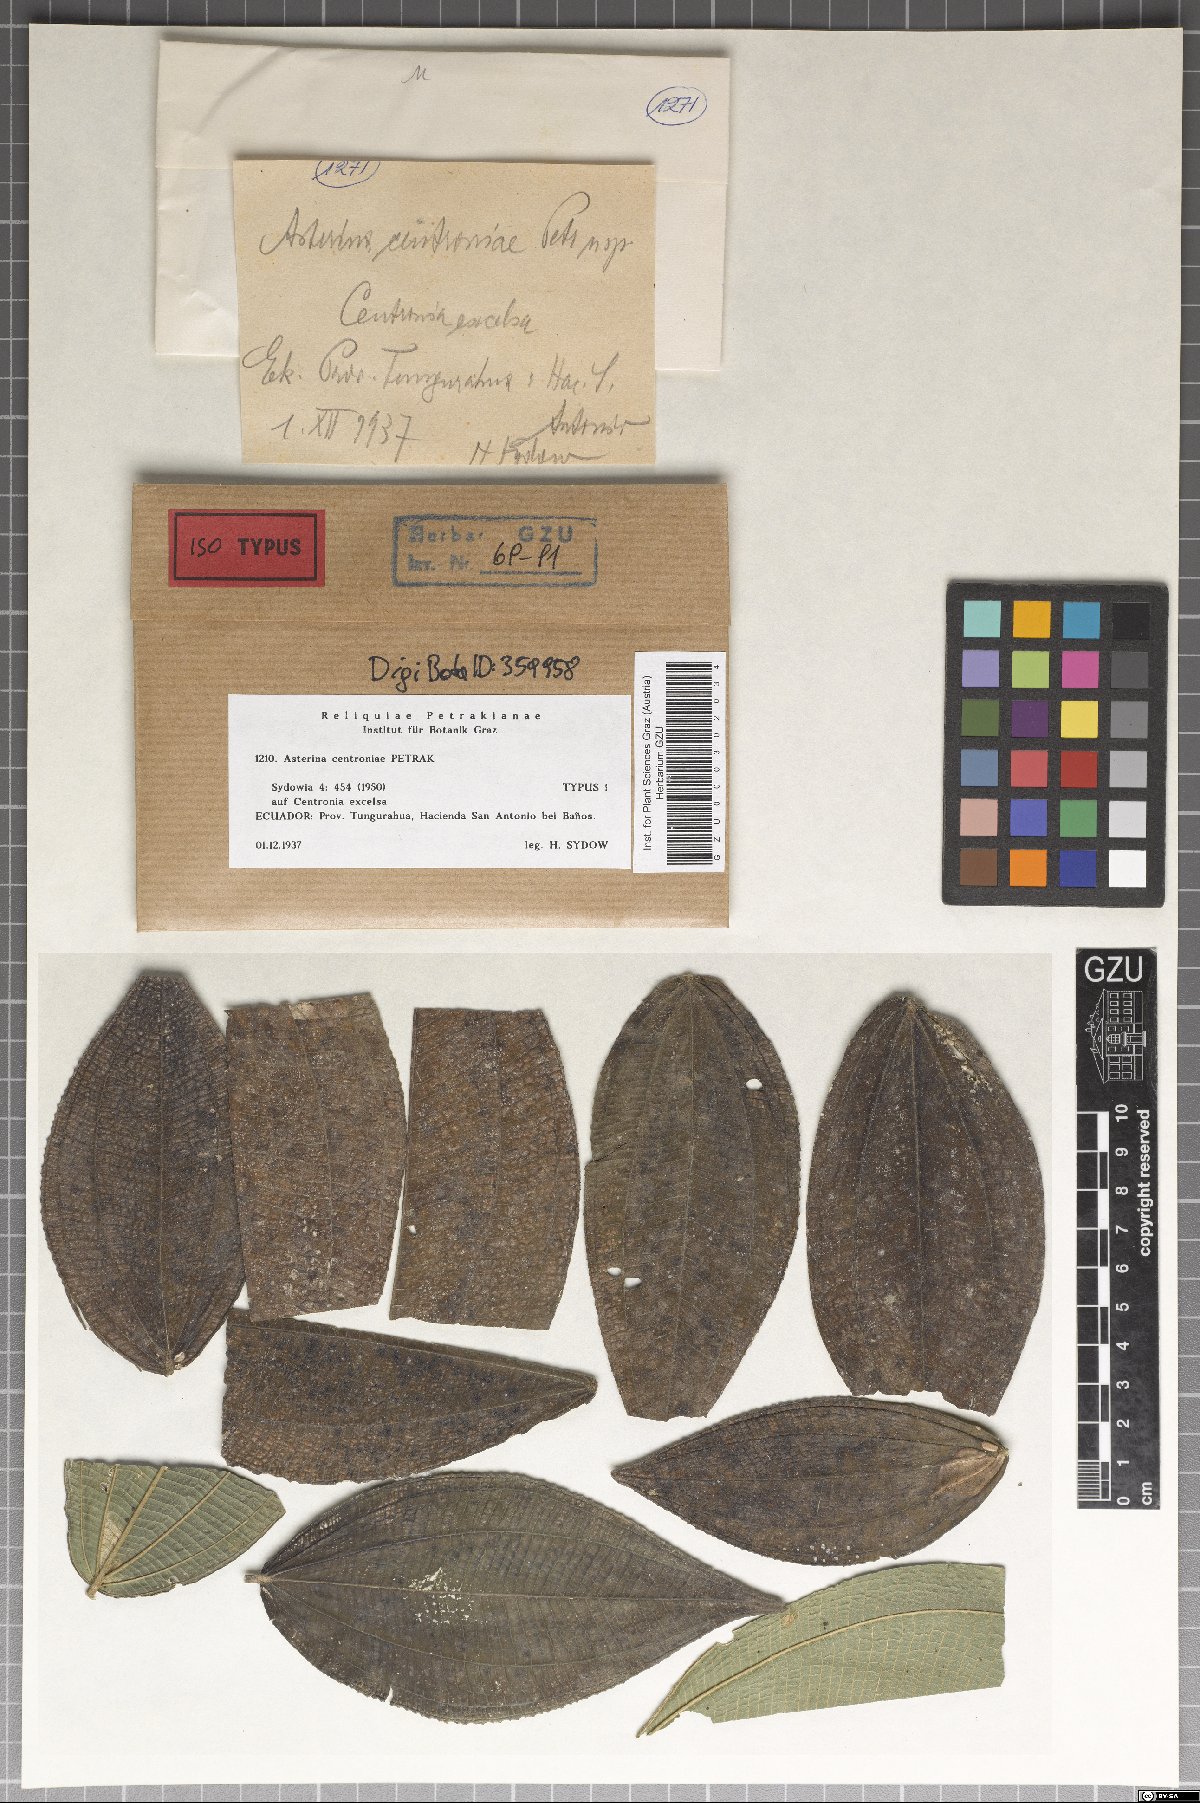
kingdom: Fungi
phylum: Ascomycota
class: Dothideomycetes
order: Asterinales
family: Asterinaceae
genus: Asterina
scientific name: Asterina centroniae
